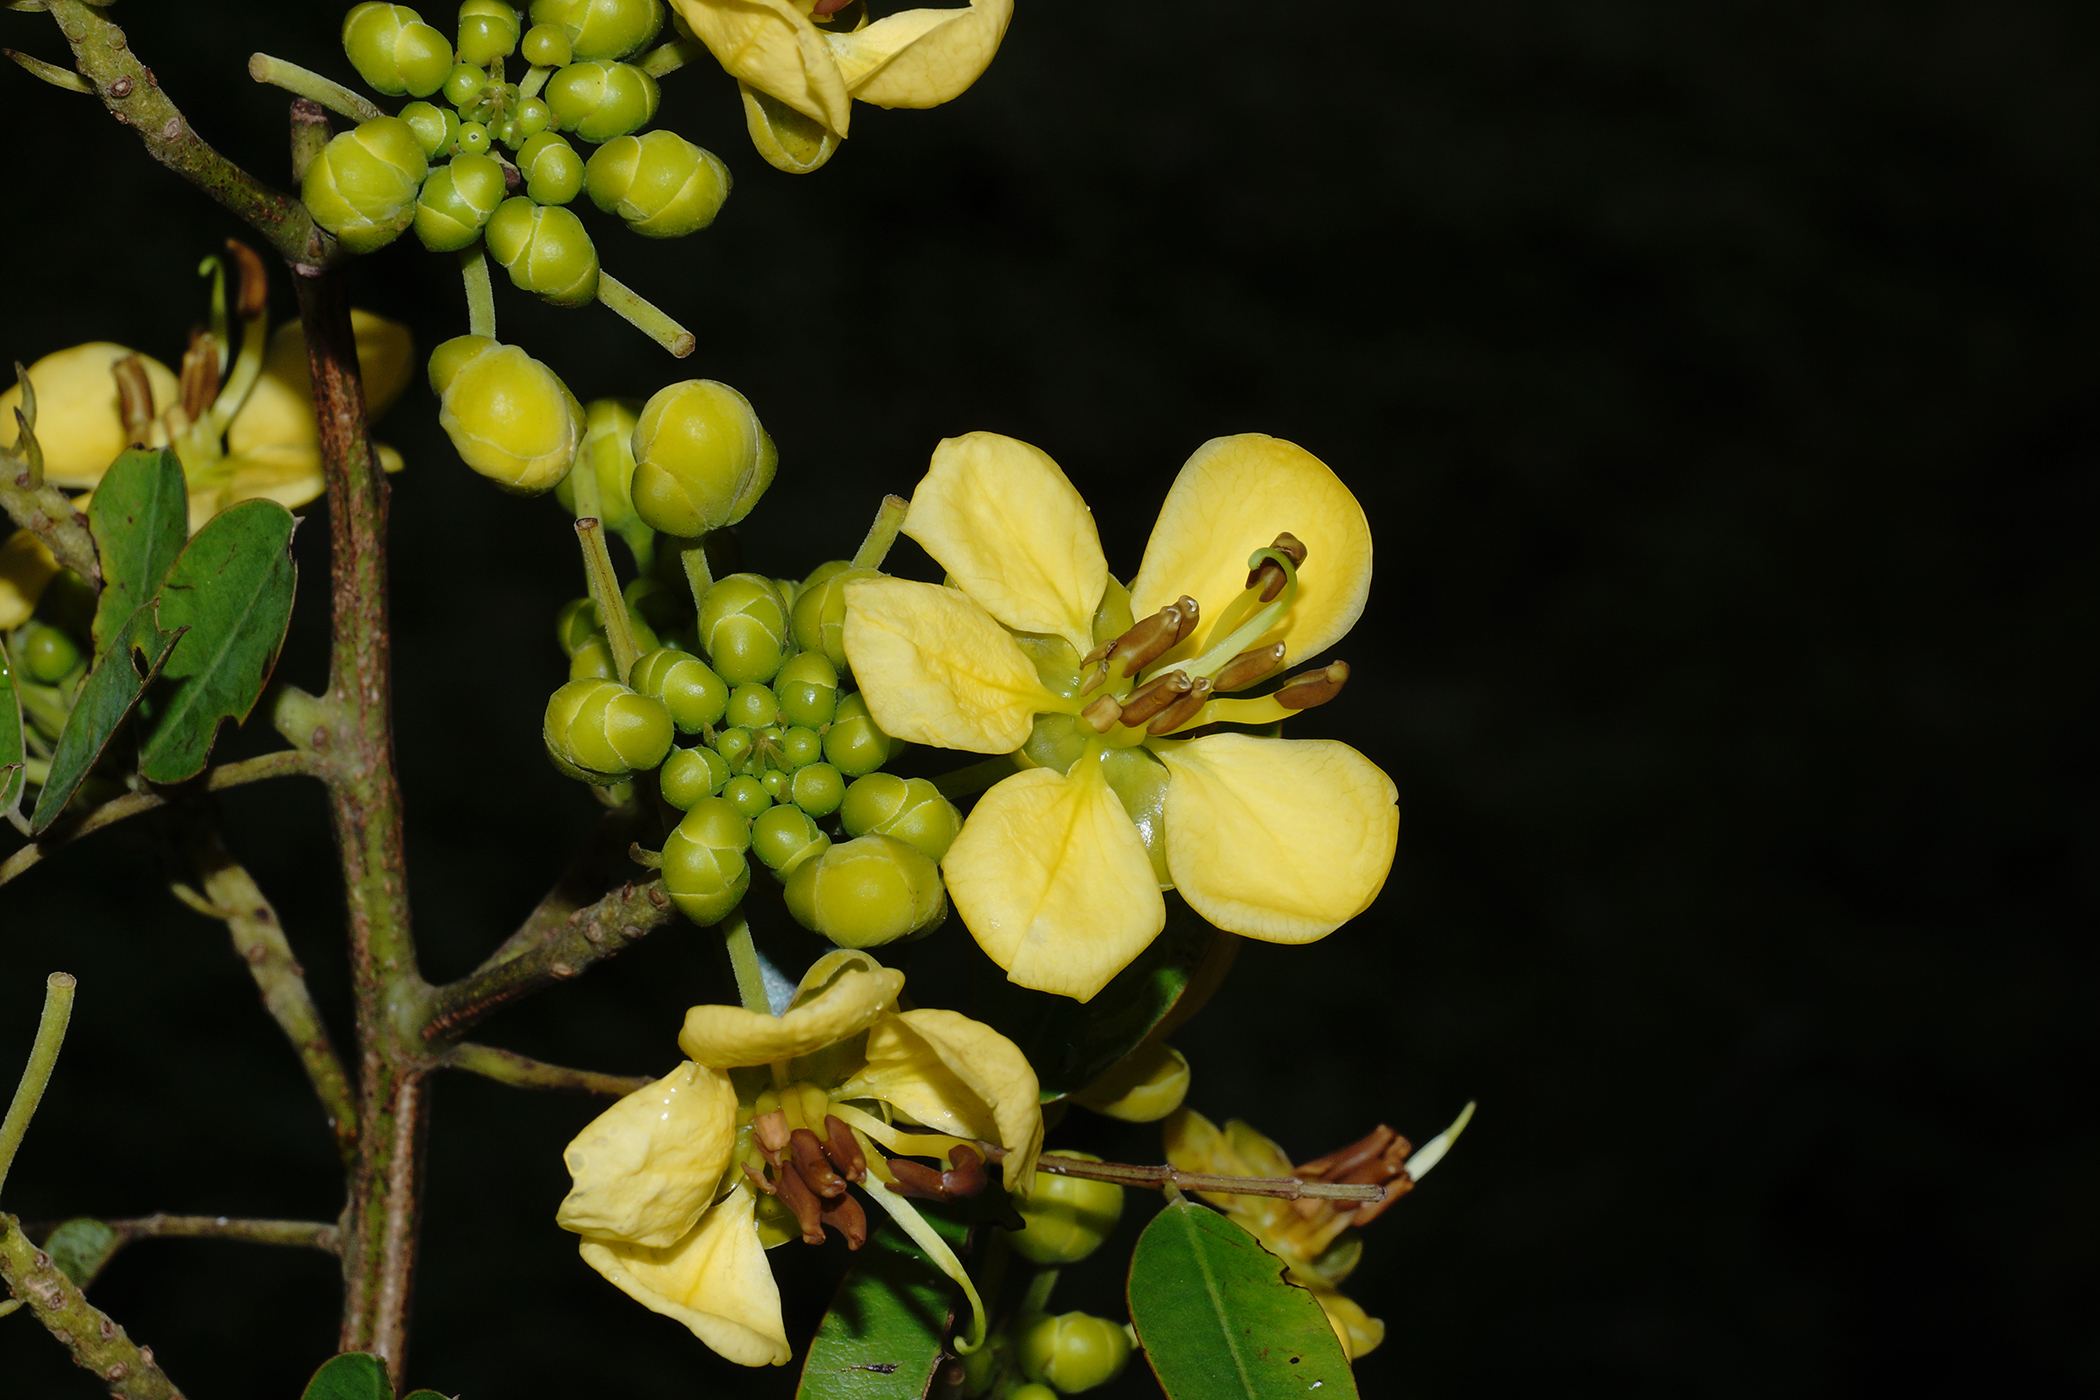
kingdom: Plantae
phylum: Tracheophyta
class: Magnoliopsida
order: Fabales
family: Fabaceae
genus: Senna
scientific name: Senna siamea
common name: Siamese cassia
